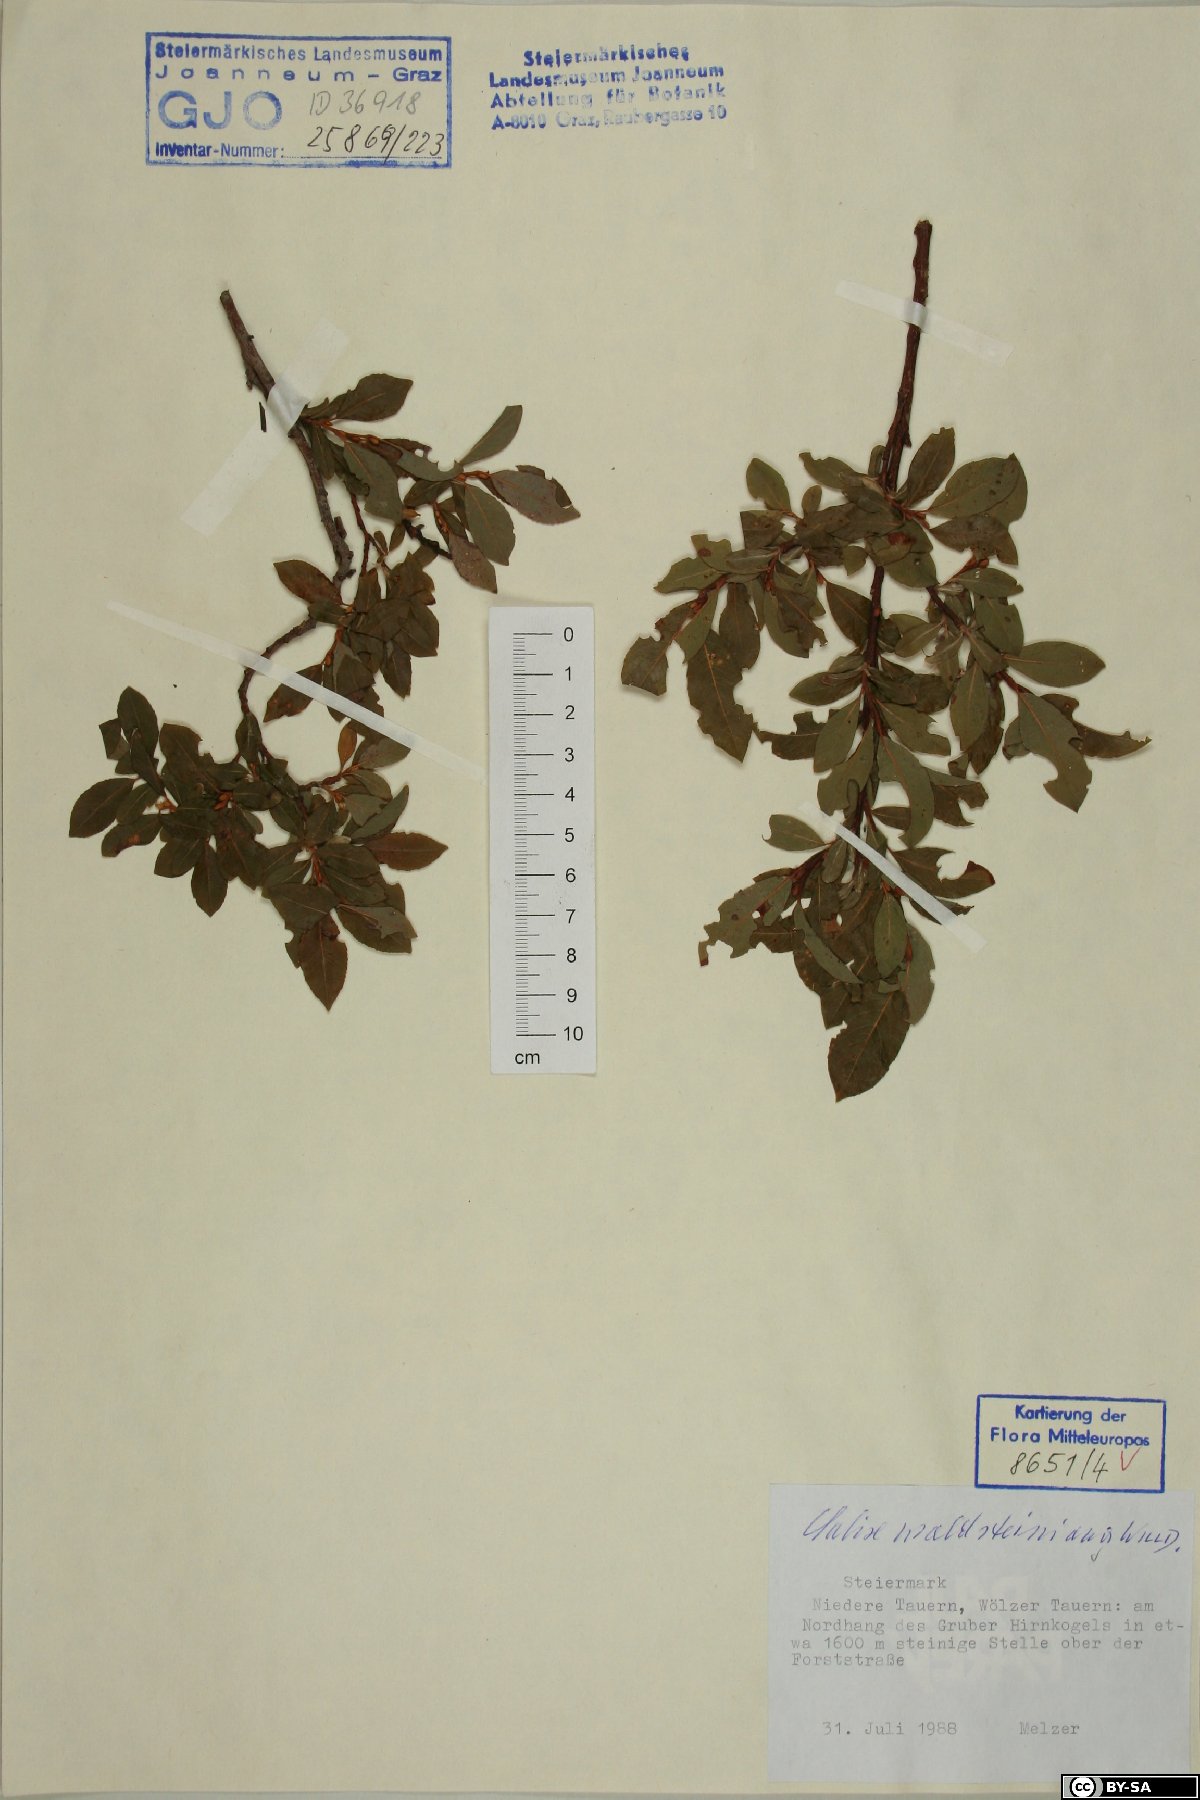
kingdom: Plantae
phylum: Tracheophyta
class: Magnoliopsida
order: Malpighiales
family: Salicaceae
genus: Salix
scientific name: Salix waldsteiniana
